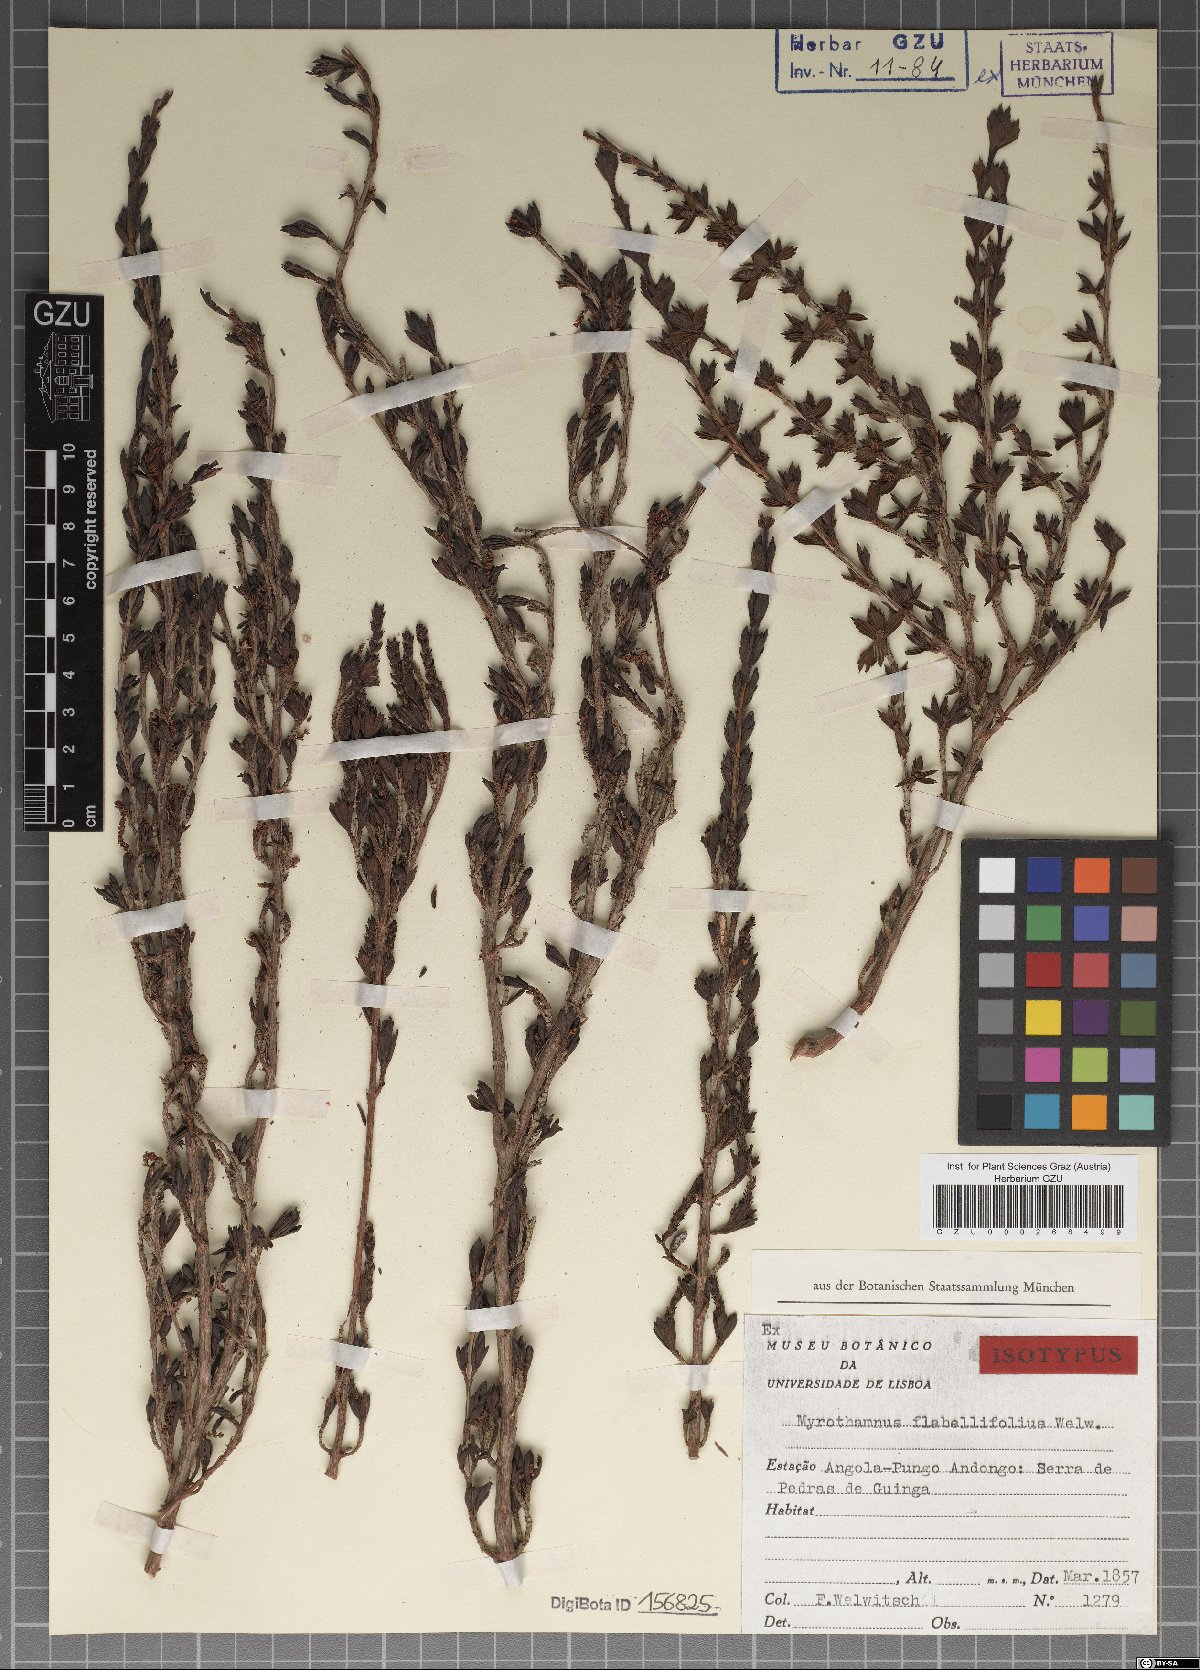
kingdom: Plantae
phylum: Tracheophyta
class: Magnoliopsida
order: Gunnerales
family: Myrothamnaceae
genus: Myrothamnus
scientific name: Myrothamnus flabellifolius
